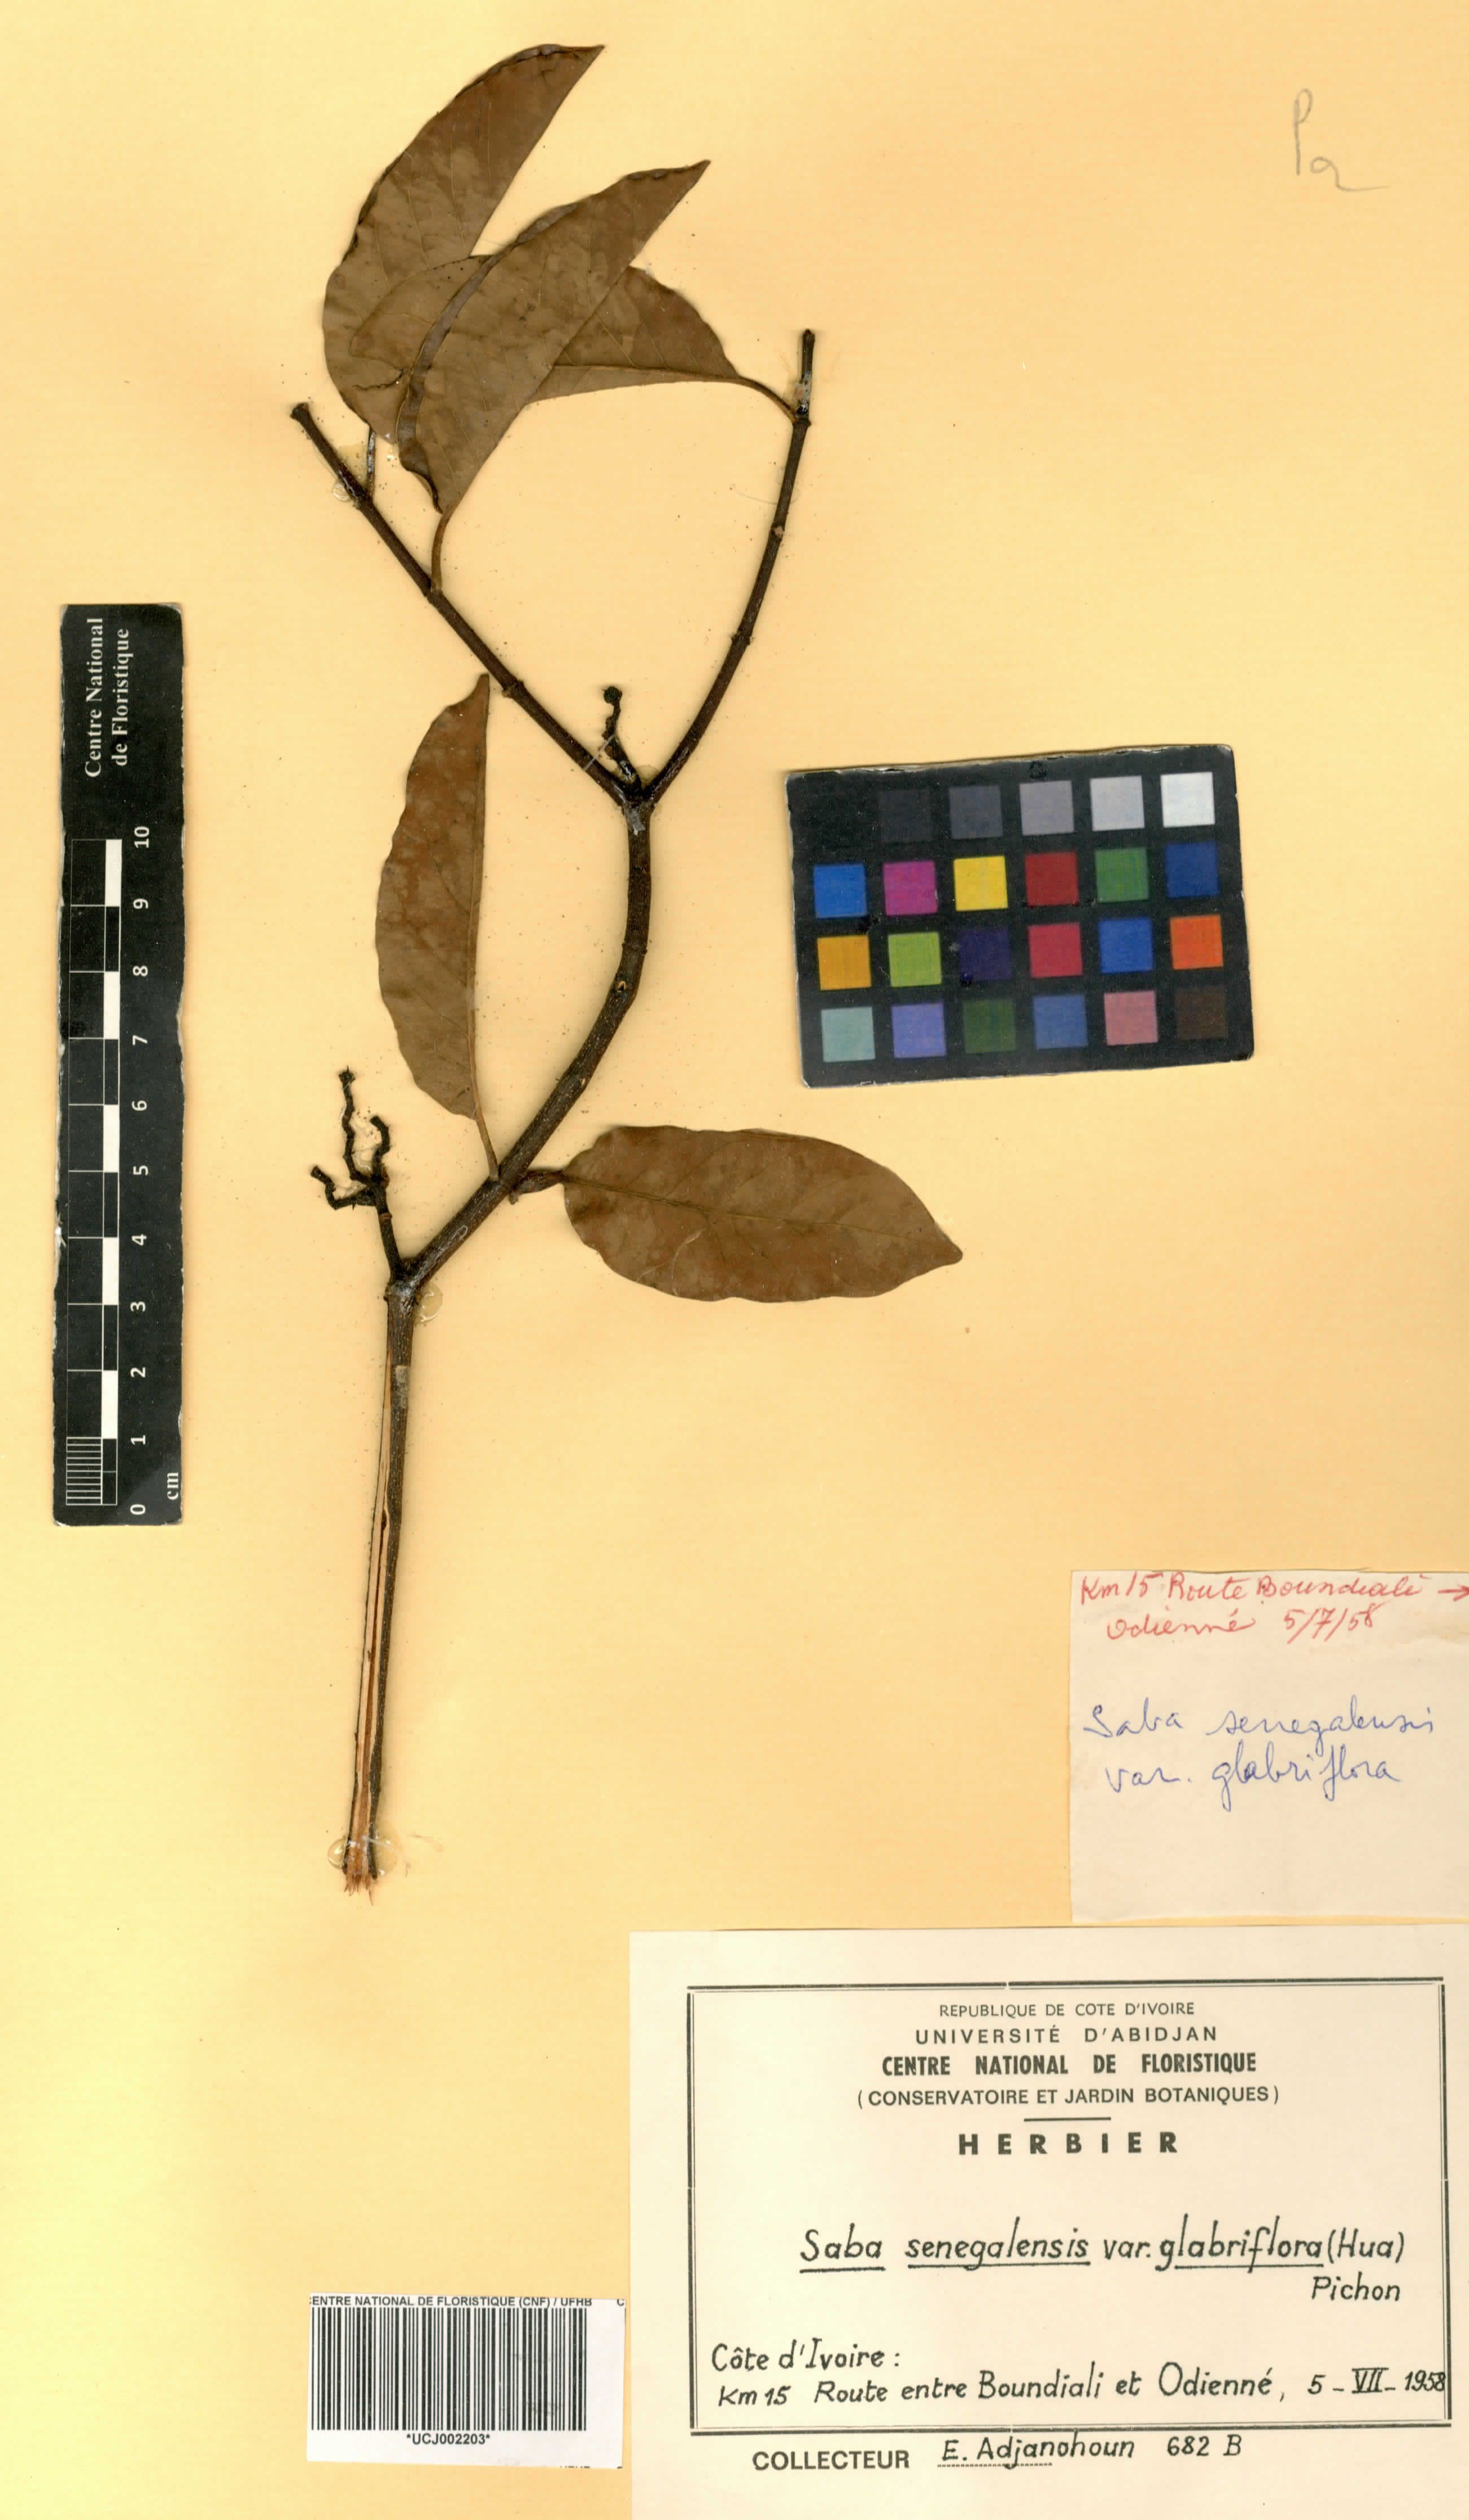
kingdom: Plantae
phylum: Tracheophyta
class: Magnoliopsida
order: Gentianales
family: Apocynaceae
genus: Saba
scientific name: Saba senegalensis
